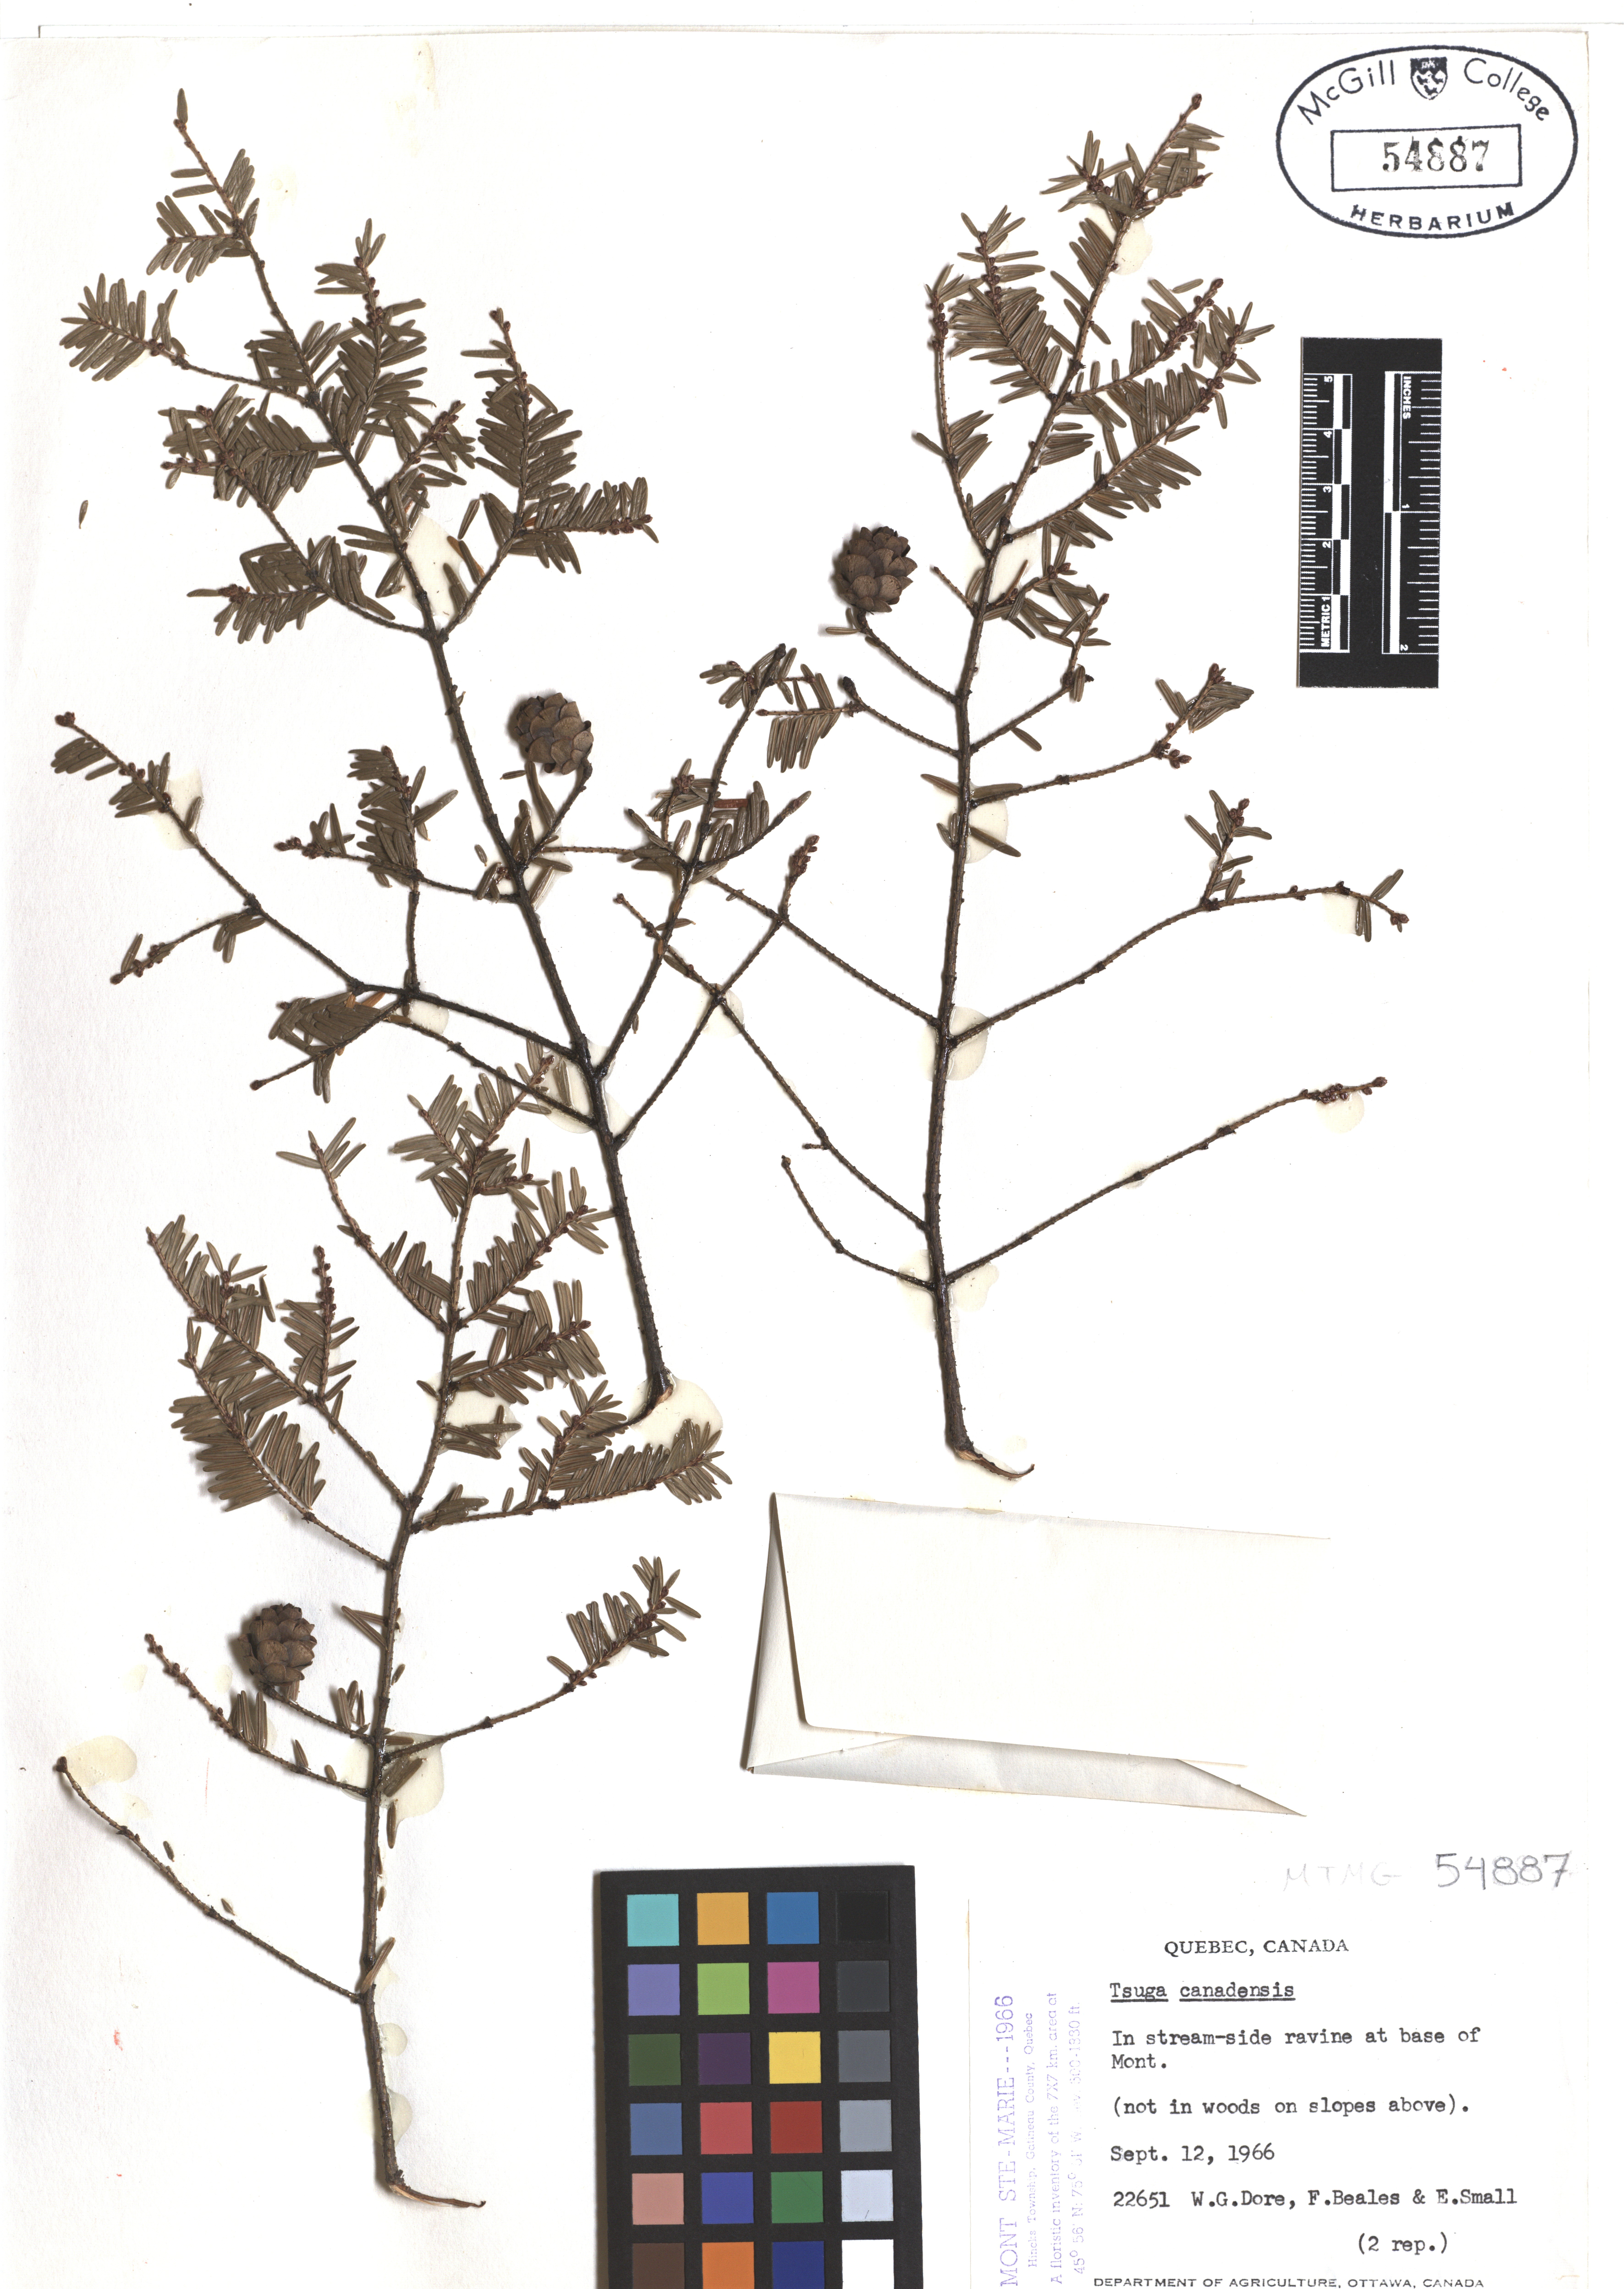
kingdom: Plantae
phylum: Tracheophyta
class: Pinopsida
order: Pinales
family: Pinaceae
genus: Tsuga
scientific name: Tsuga canadensis
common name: Eastern hemlock
